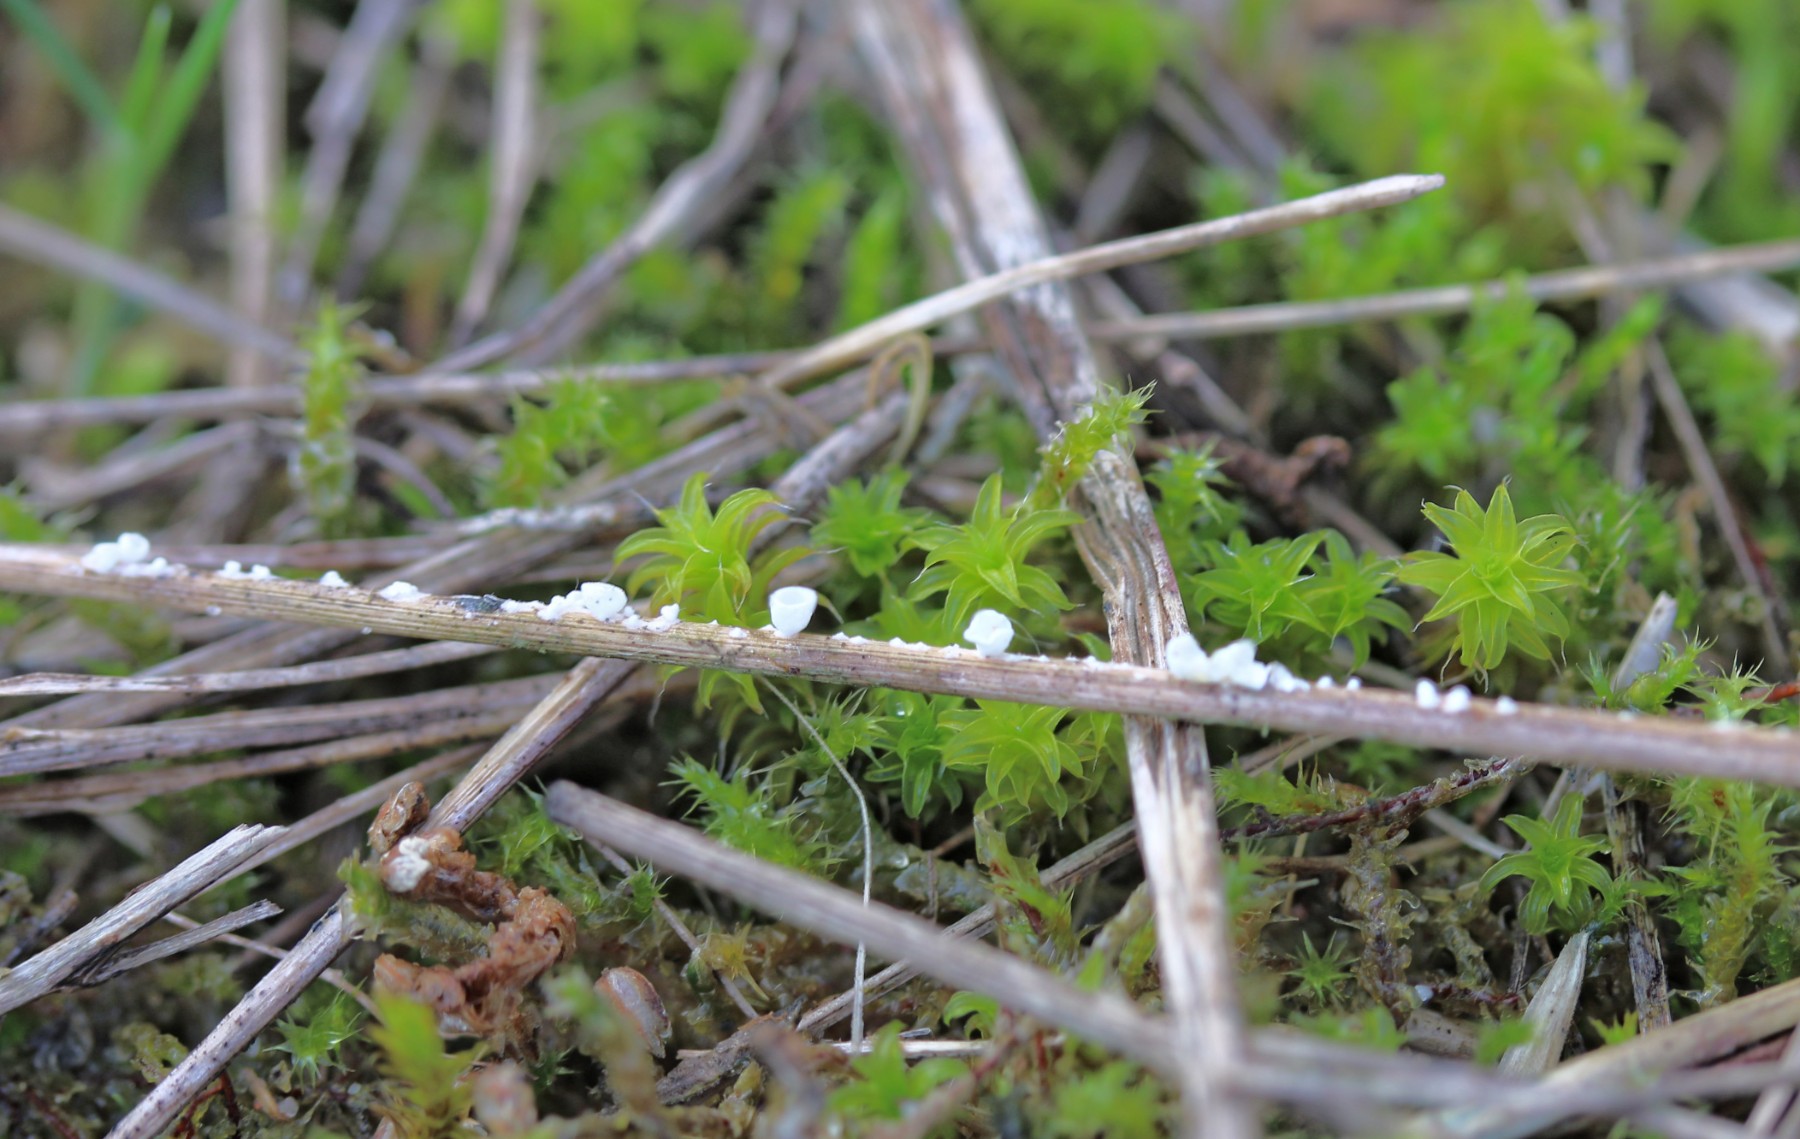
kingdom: Fungi
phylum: Basidiomycota
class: Agaricomycetes
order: Agaricales
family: Tricholomataceae
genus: Cellypha
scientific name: Cellypha goldbachii
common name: dråbeskål
